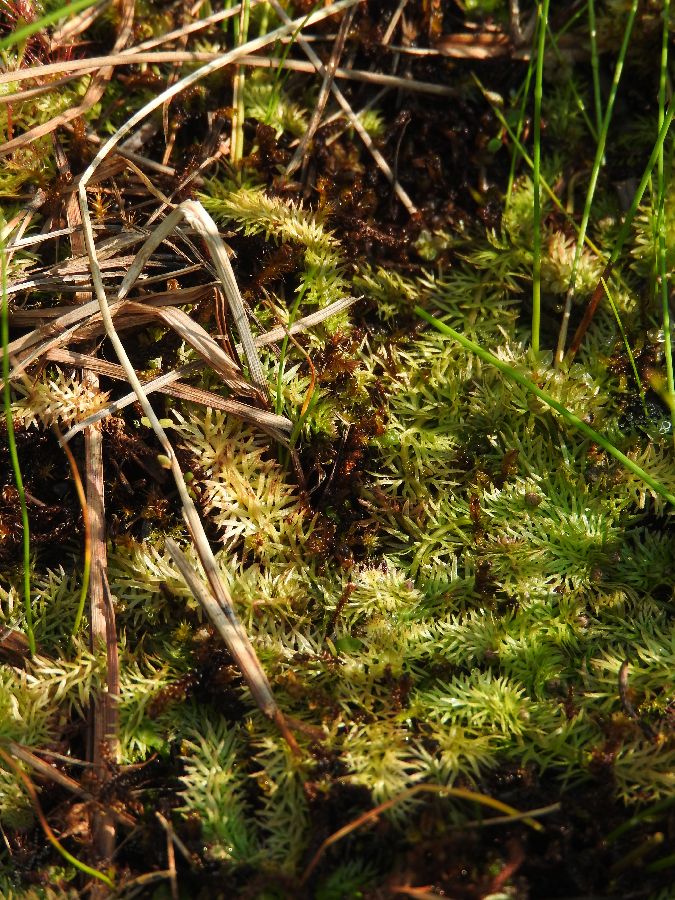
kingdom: Plantae
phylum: Tracheophyta
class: Magnoliopsida
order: Lamiales
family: Lentibulariaceae
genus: Utricularia
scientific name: Utricularia intermedia
